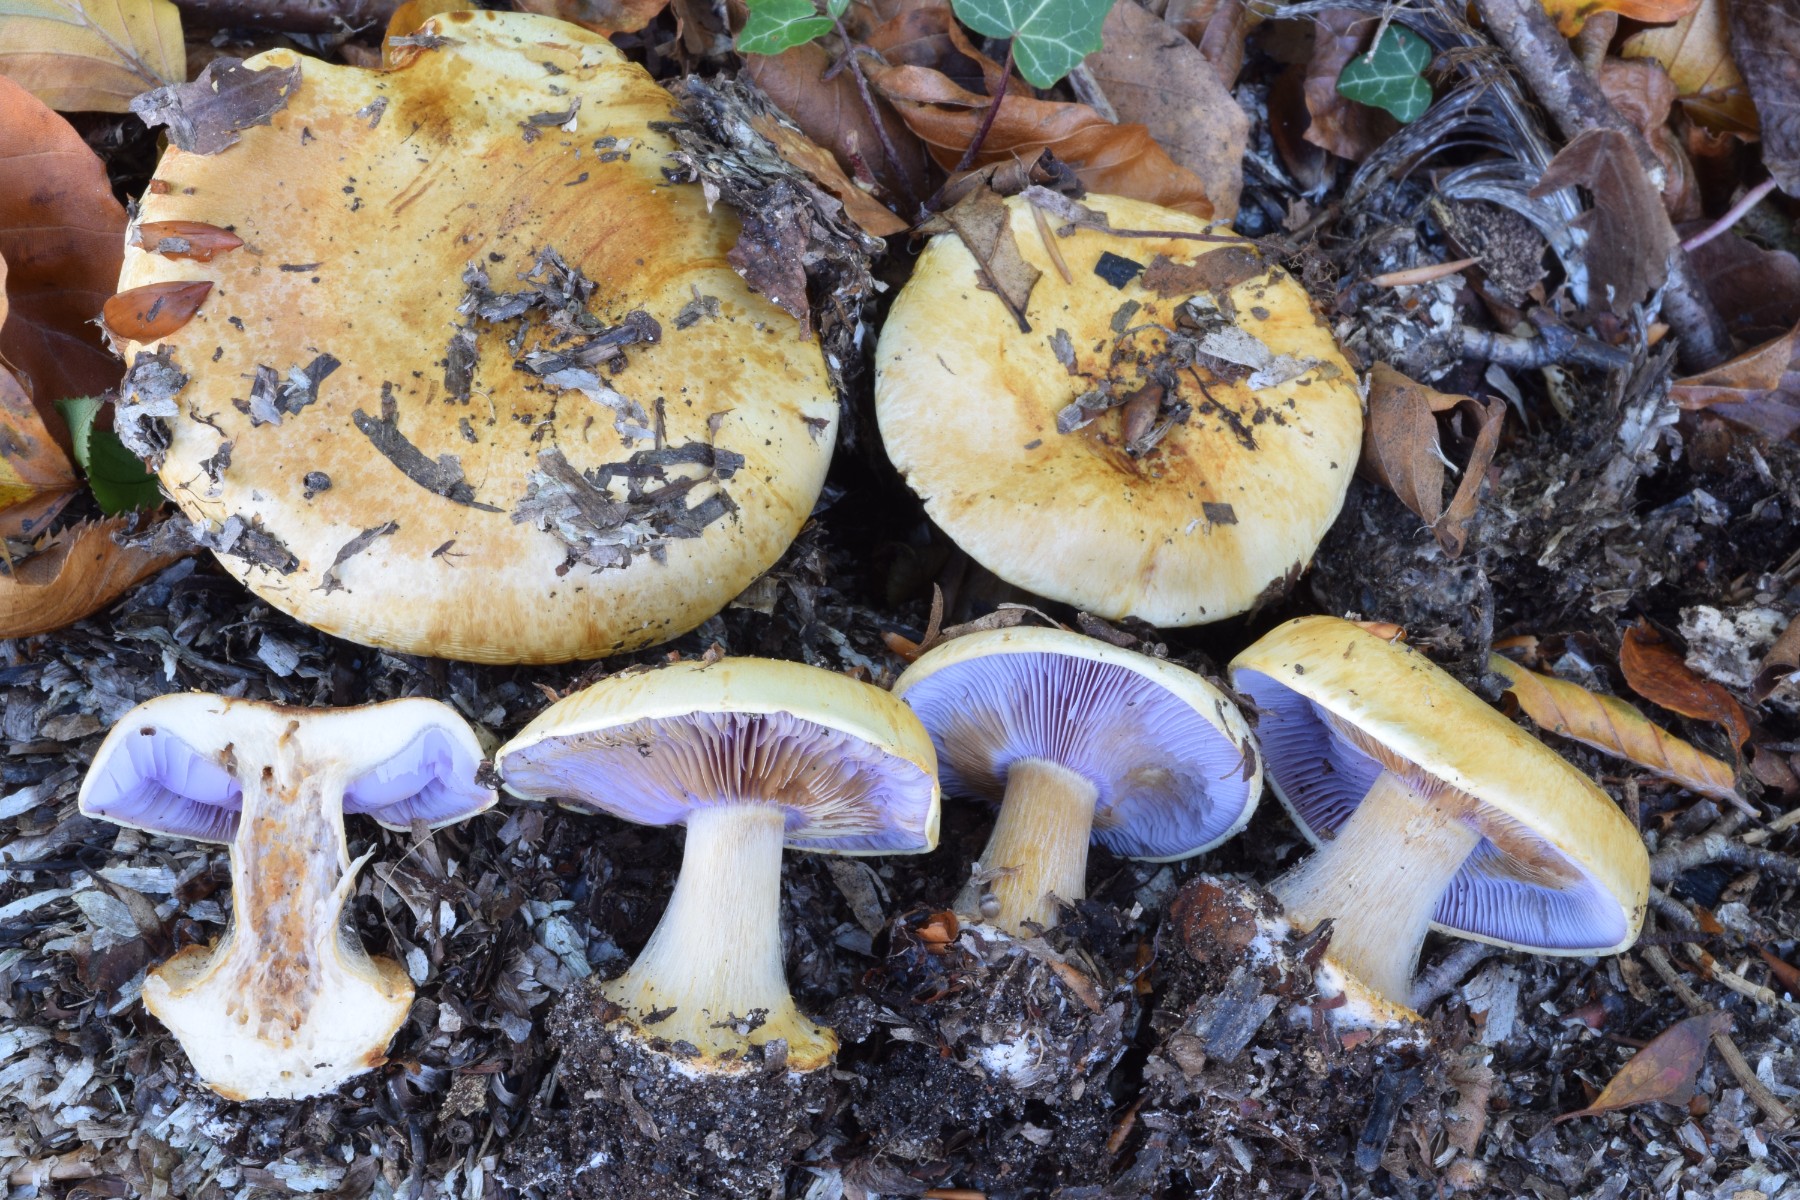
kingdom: Fungi
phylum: Basidiomycota
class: Agaricomycetes
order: Agaricales
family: Cortinariaceae
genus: Calonarius
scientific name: Calonarius catharinae
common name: Katrines slørhat
